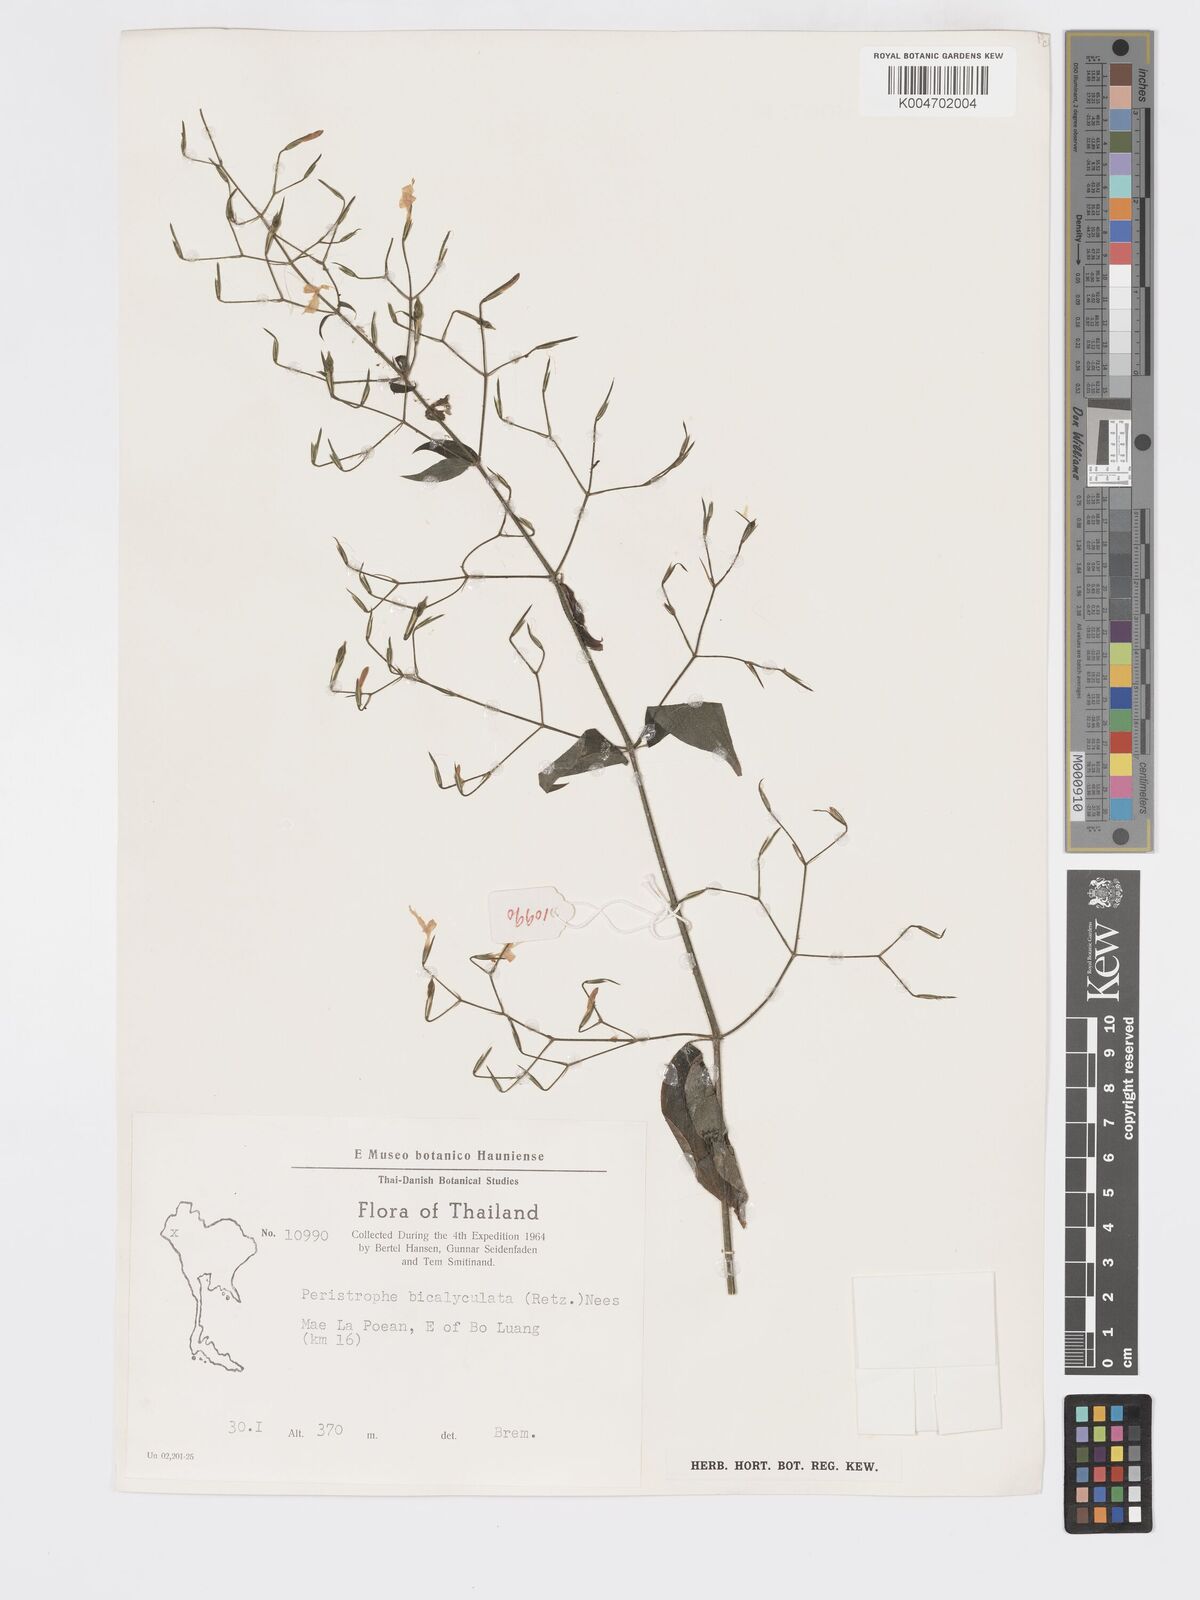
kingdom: Plantae
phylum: Tracheophyta
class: Magnoliopsida
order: Lamiales
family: Acanthaceae
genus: Dicliptera
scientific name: Dicliptera paniculata
